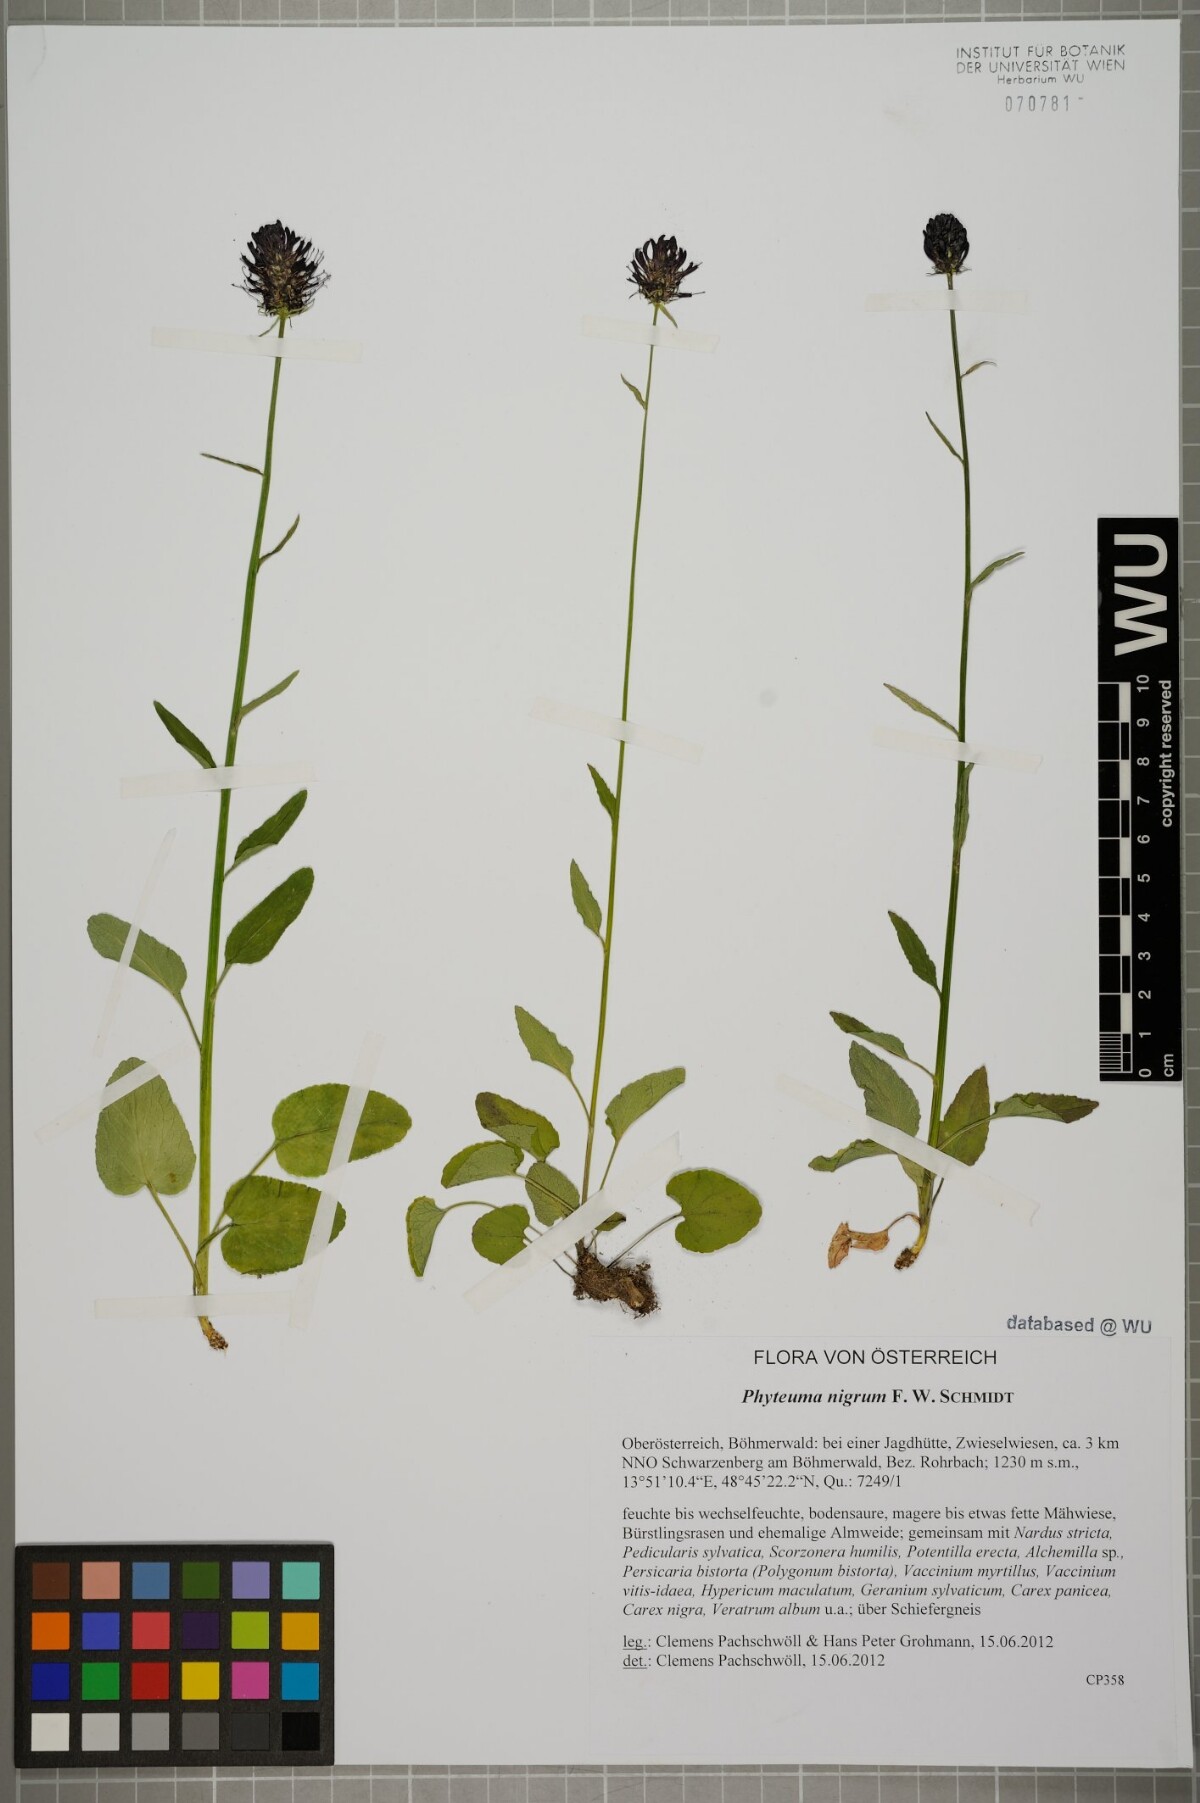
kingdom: Plantae
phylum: Tracheophyta
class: Magnoliopsida
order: Asterales
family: Campanulaceae
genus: Phyteuma
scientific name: Phyteuma nigrum
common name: Black rampion
